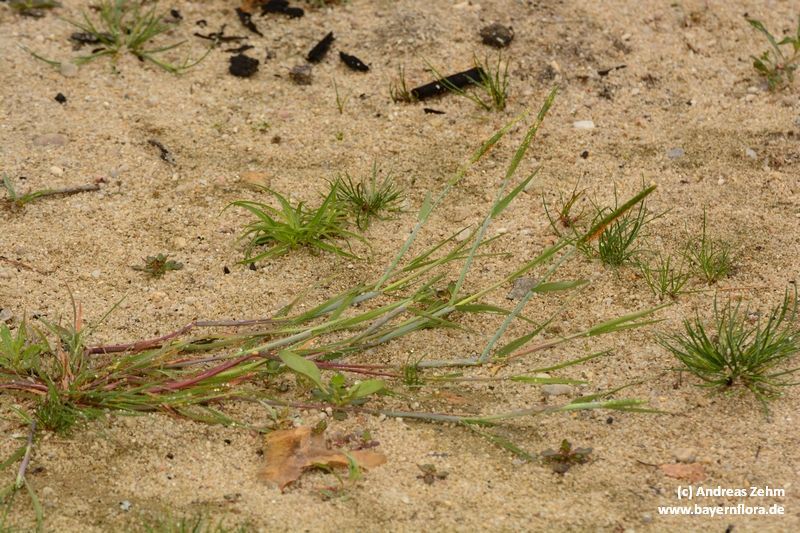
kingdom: Plantae
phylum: Tracheophyta
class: Liliopsida
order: Poales
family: Poaceae
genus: Alopecurus
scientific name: Alopecurus aequalis
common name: Orange foxtail
